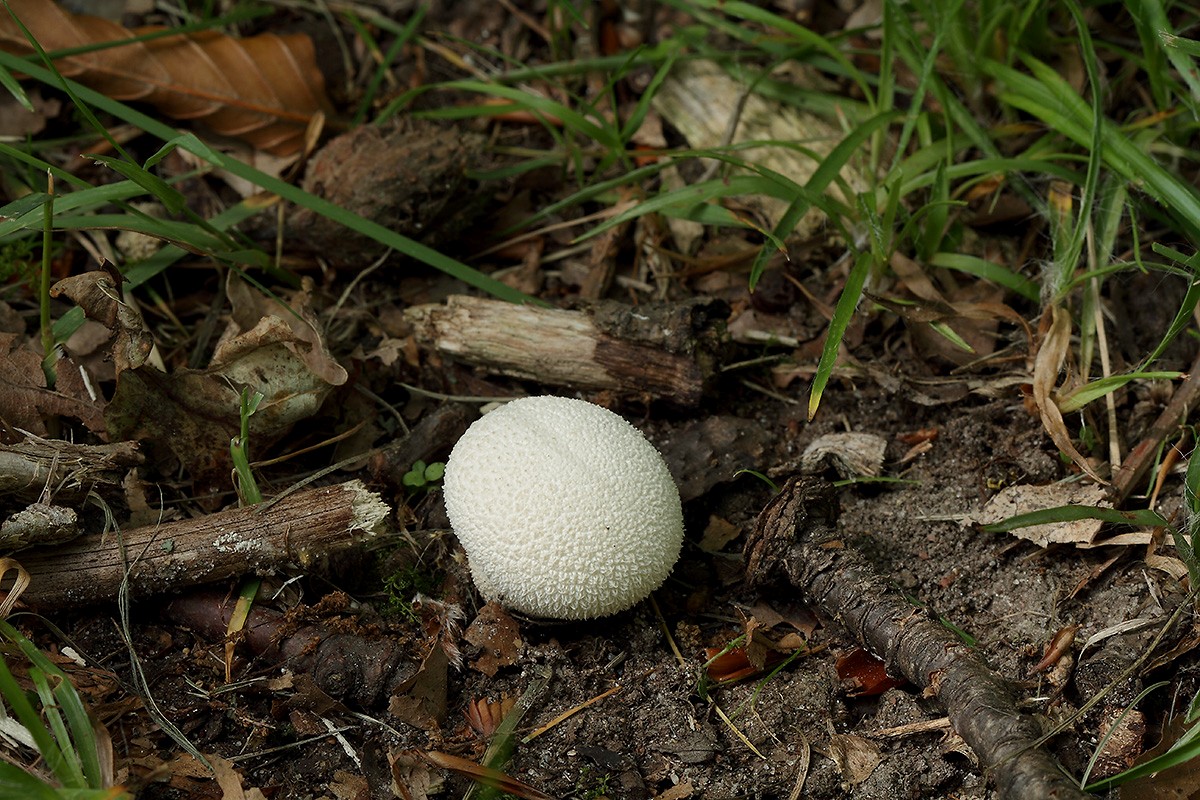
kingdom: Fungi
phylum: Basidiomycota
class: Agaricomycetes
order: Agaricales
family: Lycoperdaceae
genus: Lycoperdon
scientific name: Lycoperdon decipiens
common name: rod-støvbold
